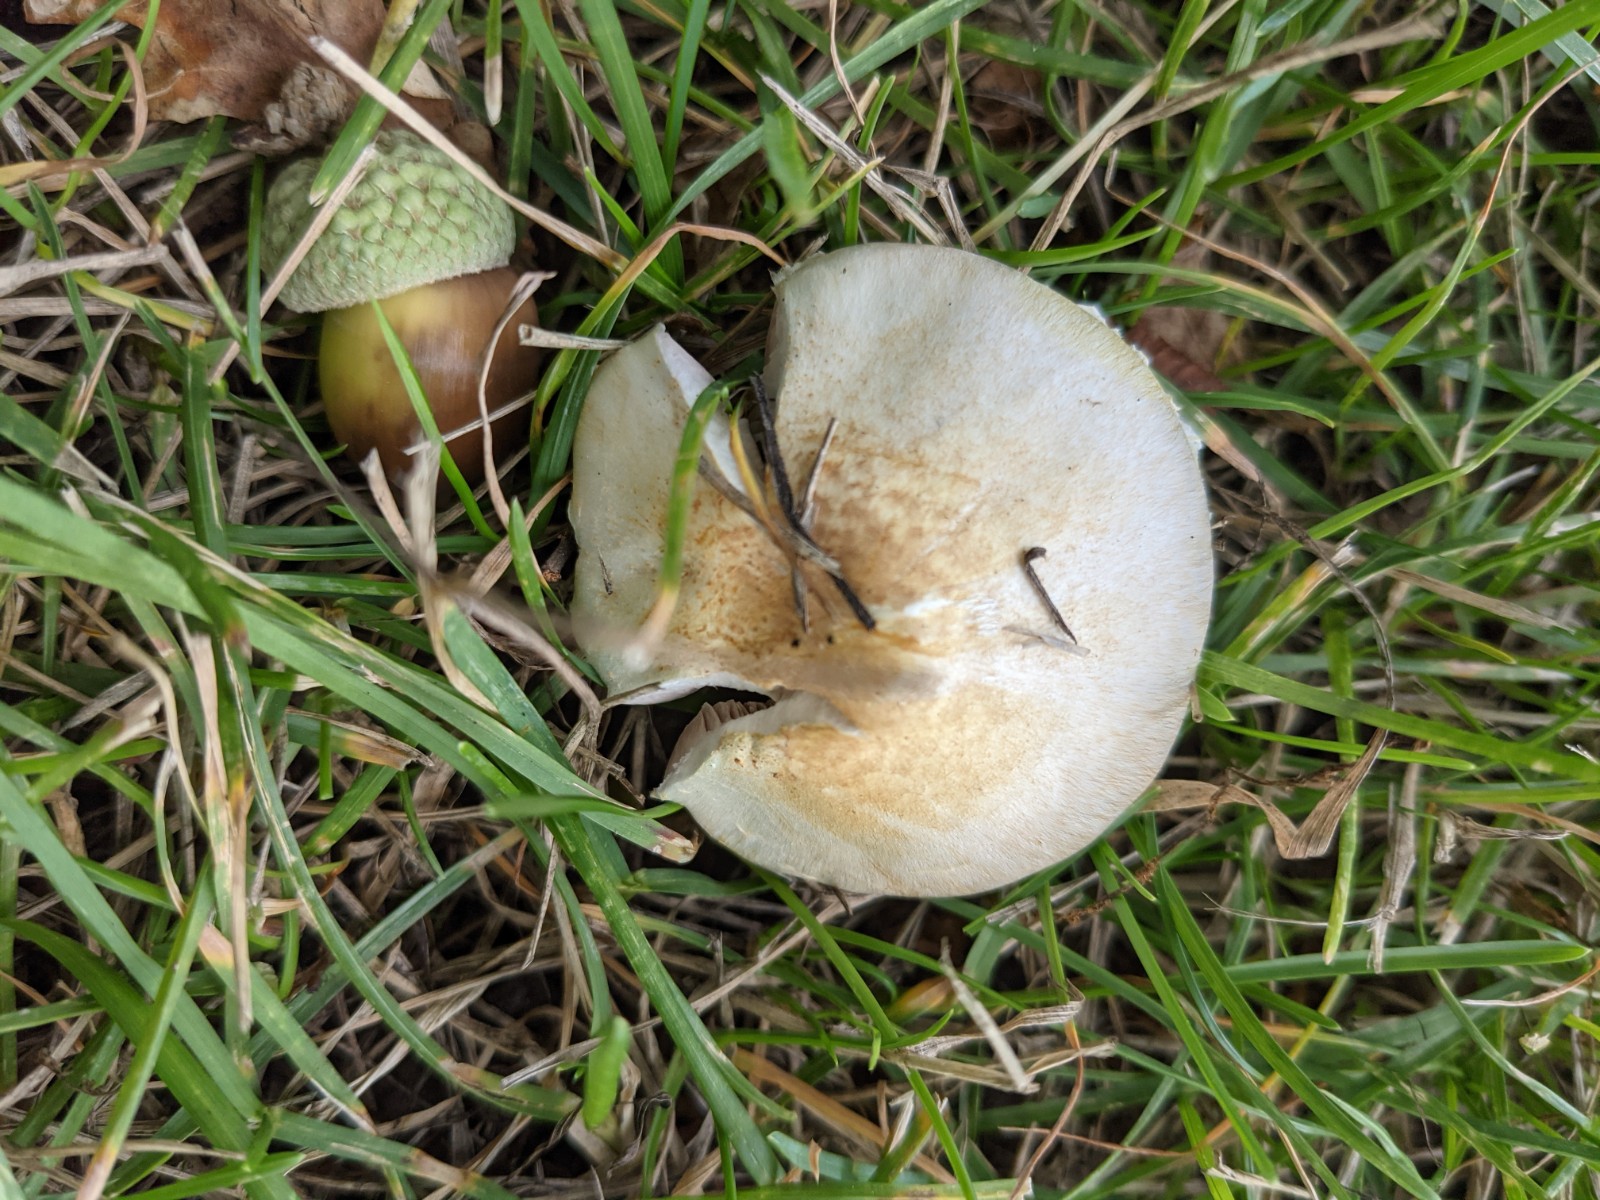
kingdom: Fungi
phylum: Basidiomycota
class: Agaricomycetes
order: Agaricales
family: Agaricaceae
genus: Agaricus
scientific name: Agaricus dulcidulus
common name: blegrød champignon
